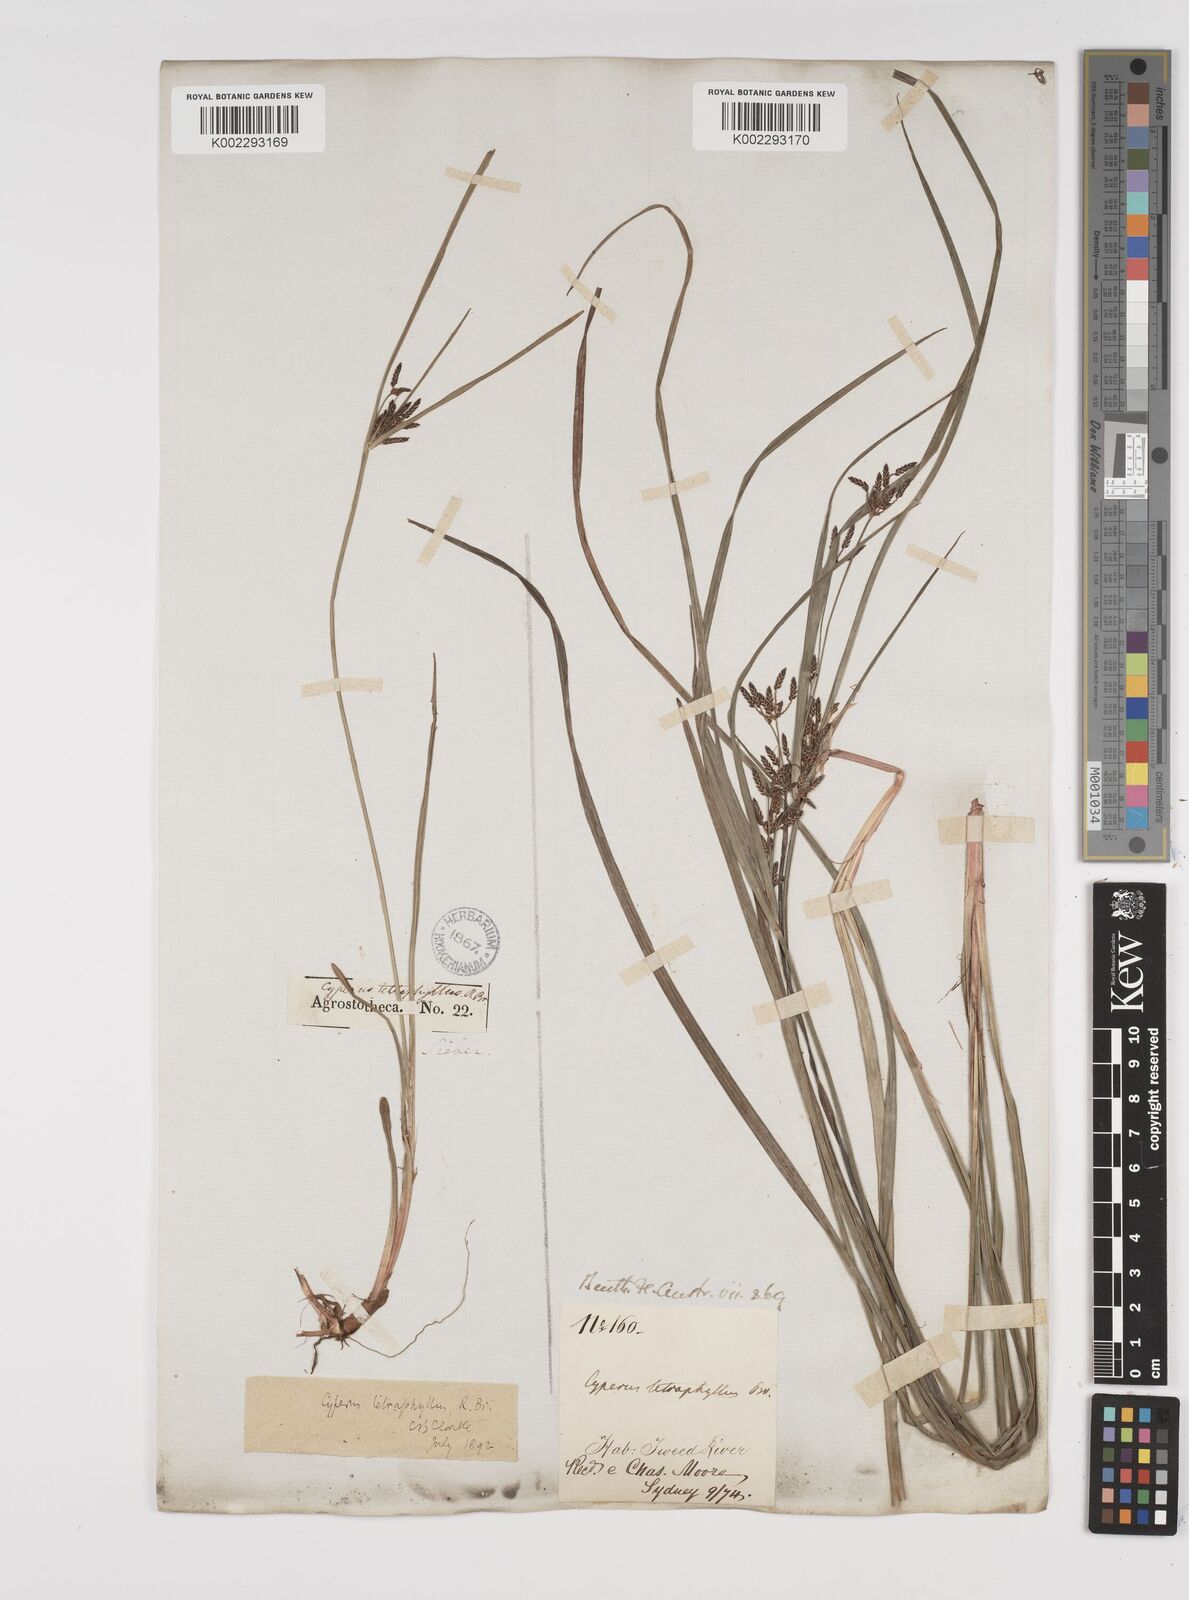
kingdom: Plantae
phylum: Tracheophyta
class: Liliopsida
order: Poales
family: Cyperaceae
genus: Cyperus
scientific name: Cyperus tetraphyllus
